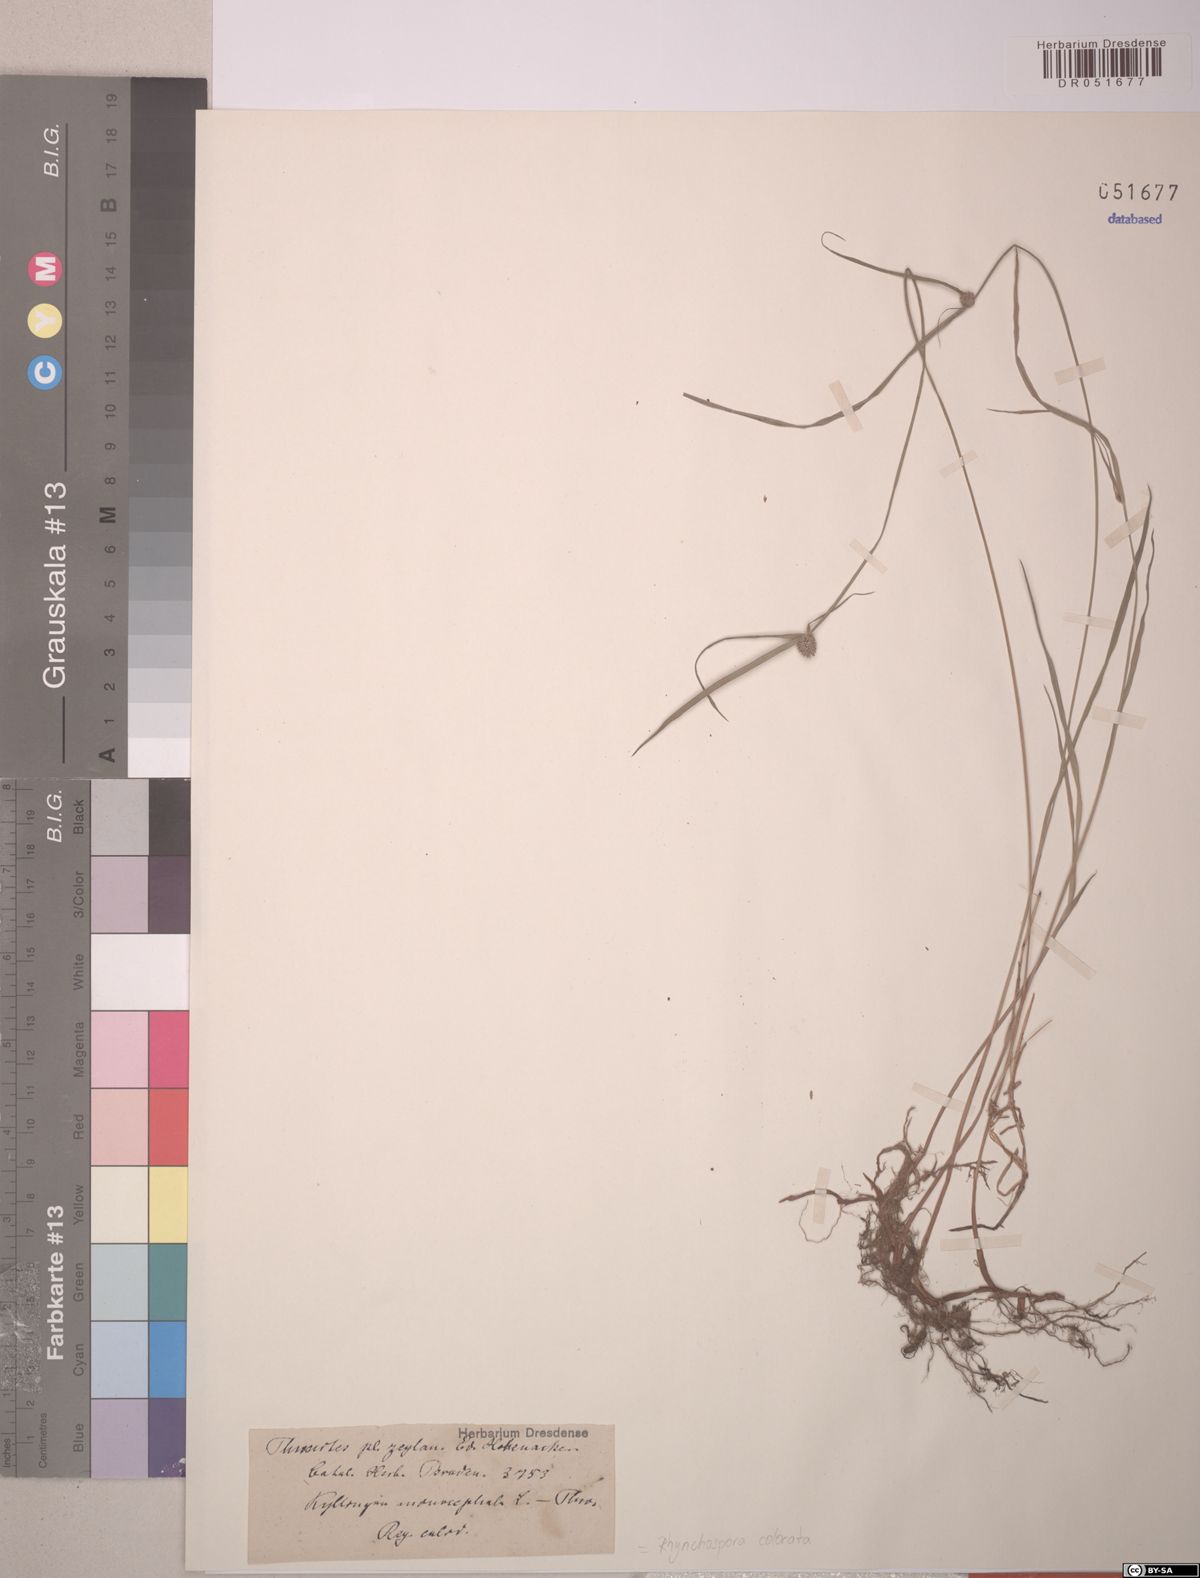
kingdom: Plantae
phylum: Tracheophyta
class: Liliopsida
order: Poales
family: Cyperaceae
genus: Cyperus
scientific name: Cyperus brevifolius
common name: Globe kyllinga
